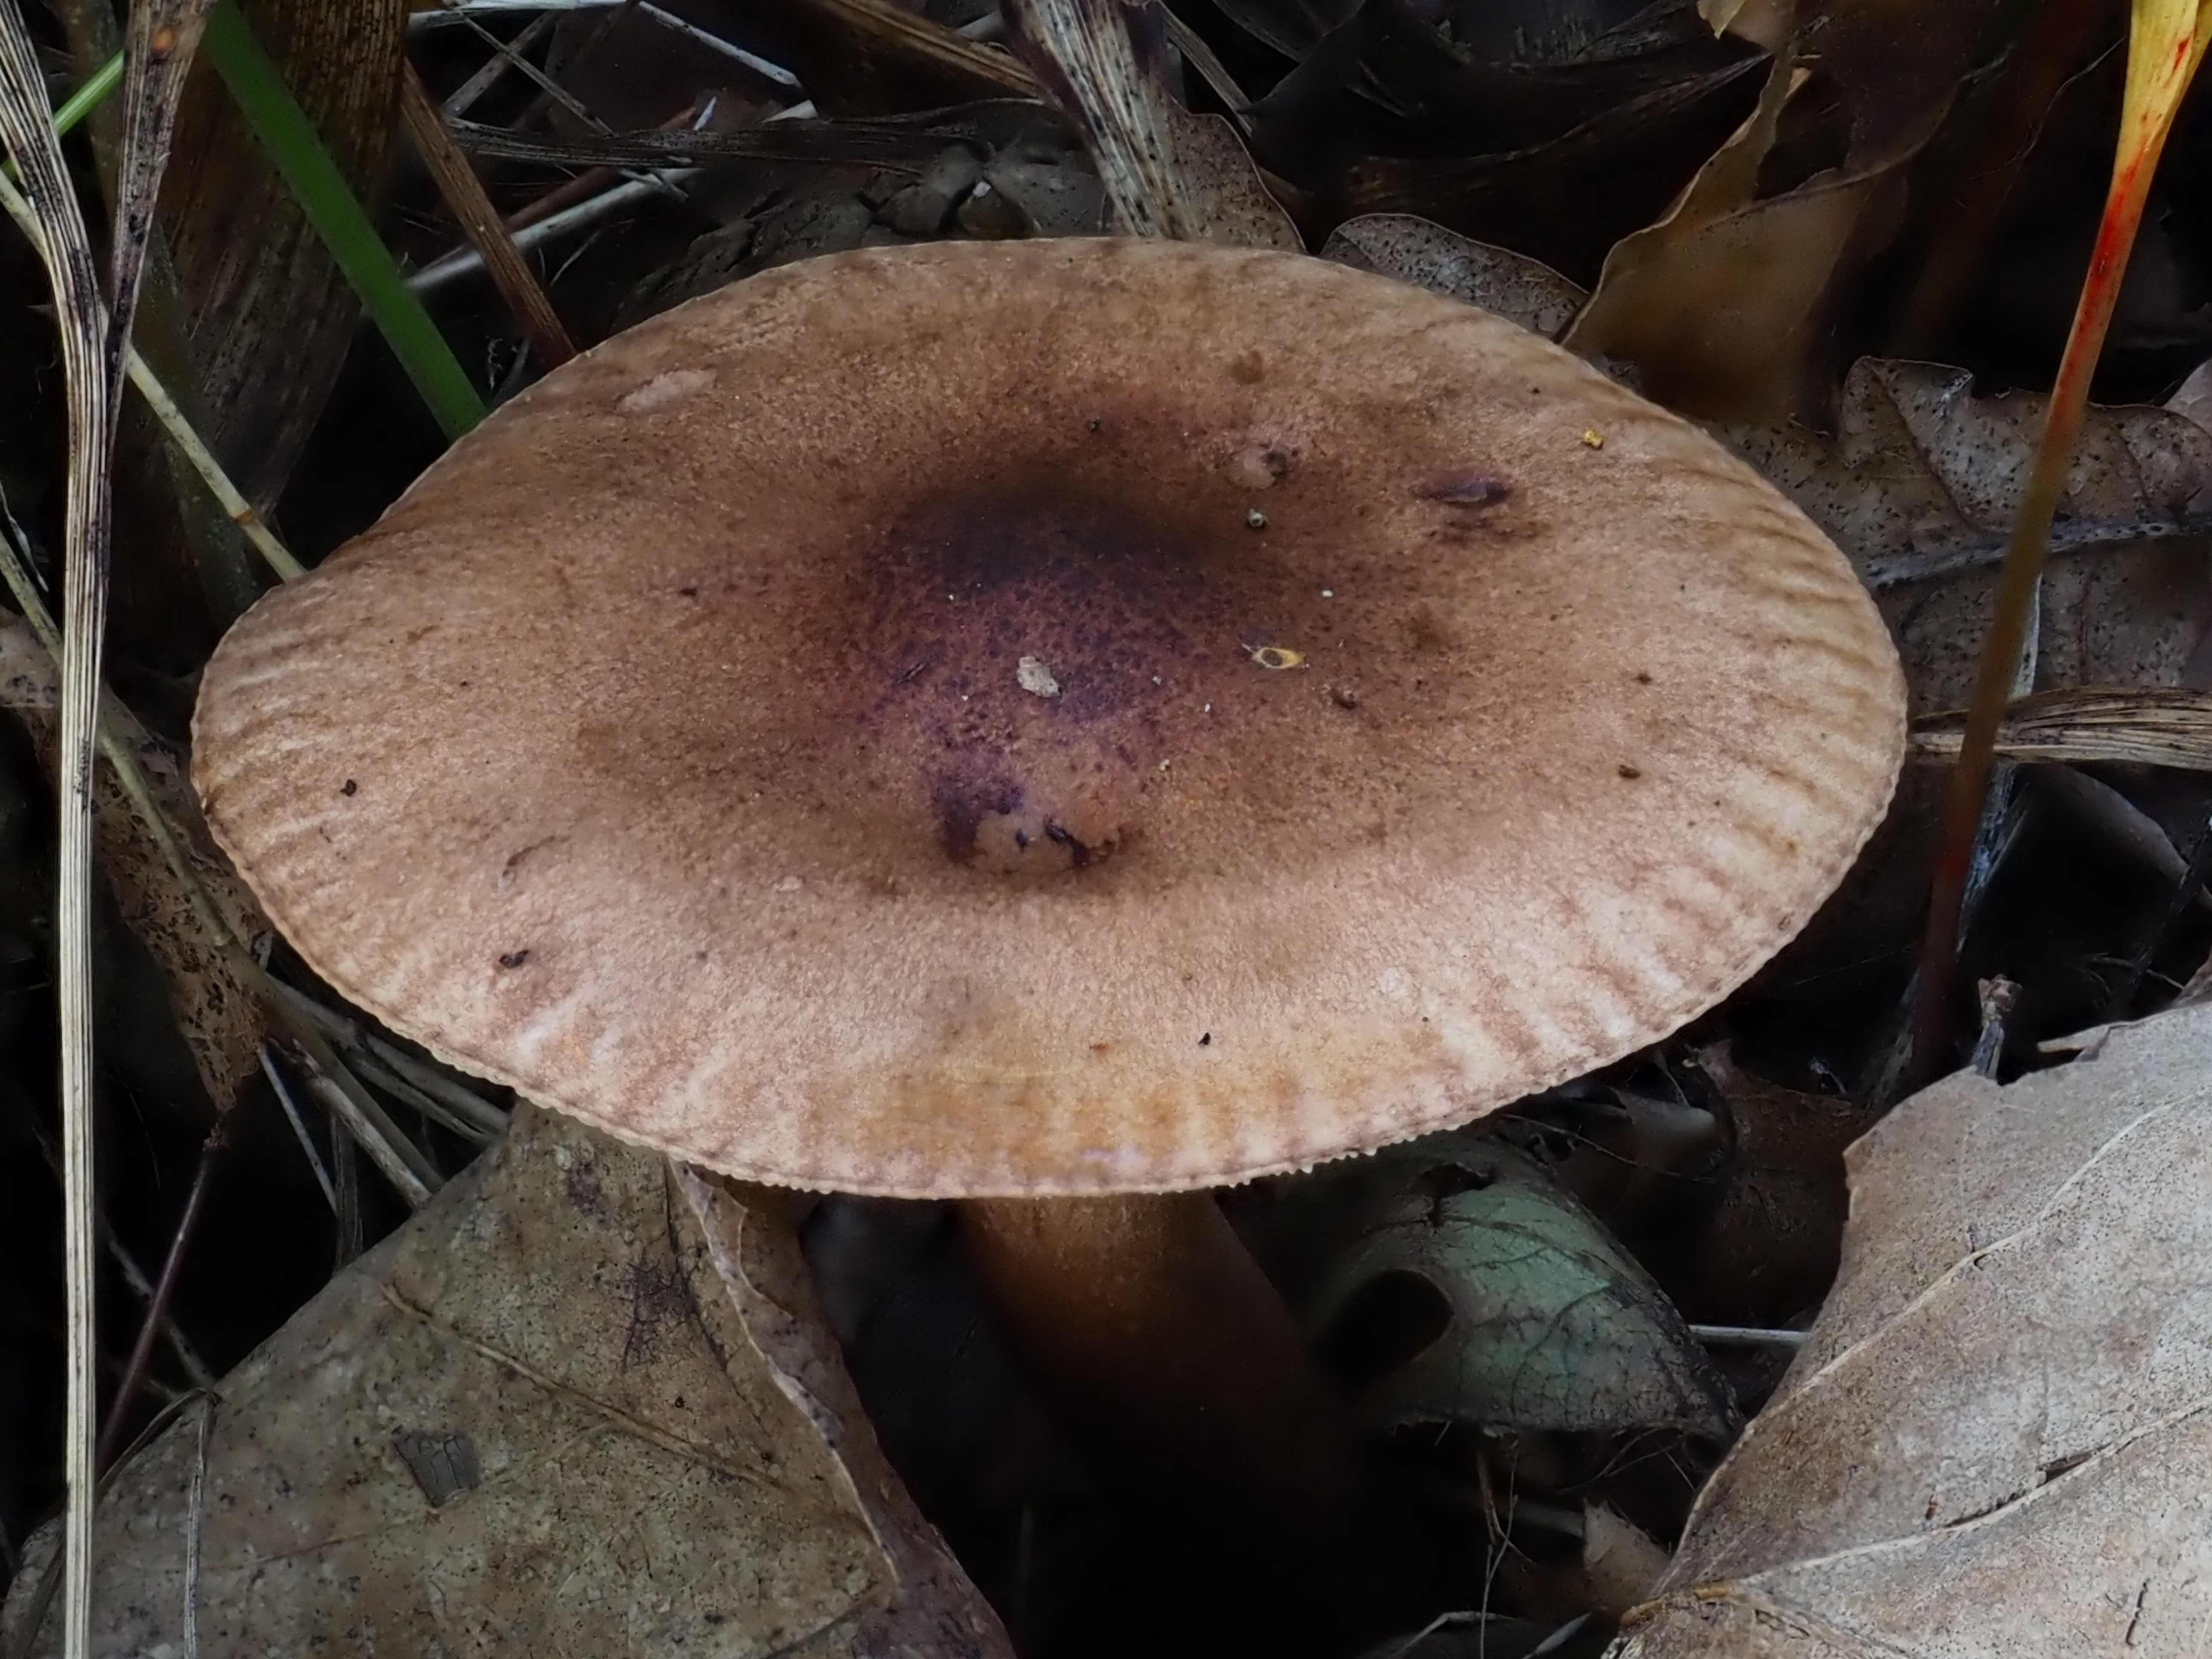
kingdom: Fungi
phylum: Basidiomycota
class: Agaricomycetes
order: Agaricales
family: Tricholomataceae
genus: Tricholoma
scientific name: Tricholoma populinum
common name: Poplar knight
